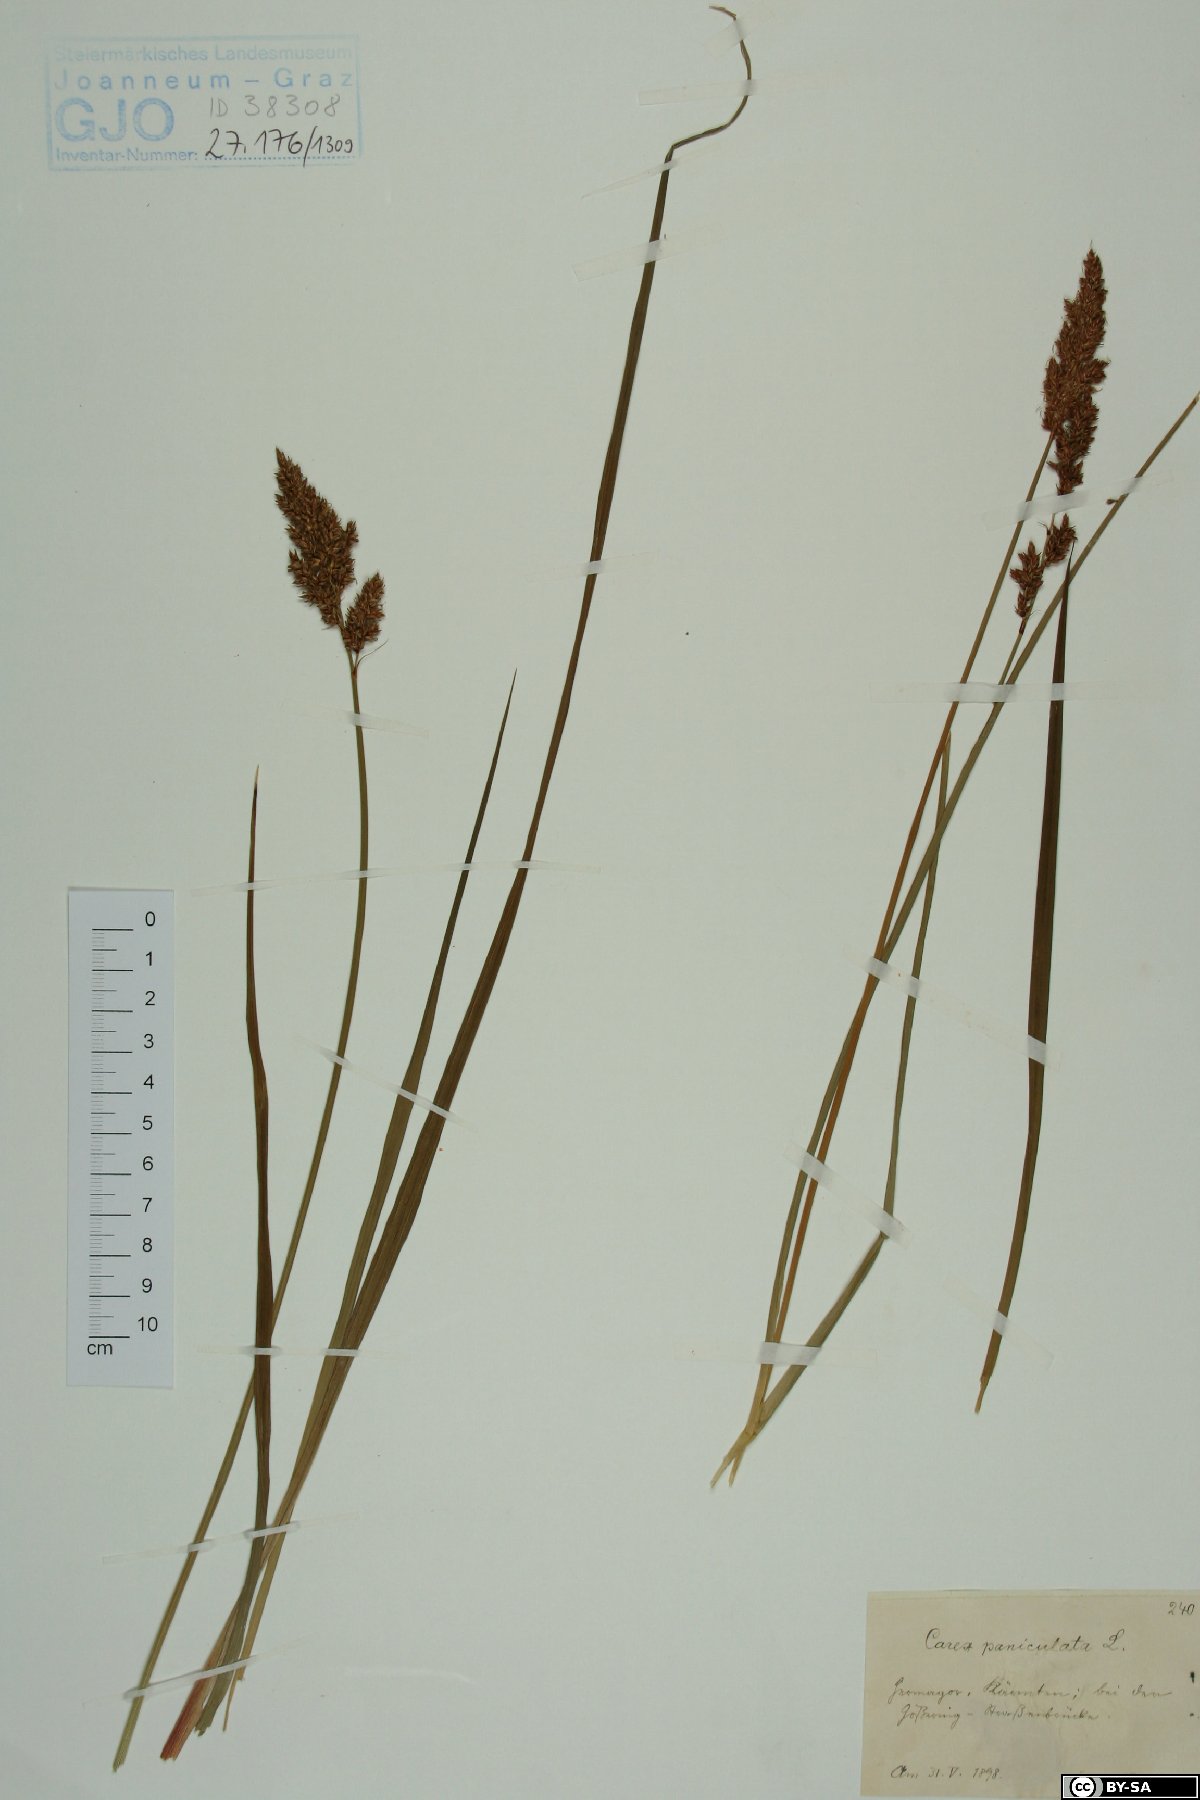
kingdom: Plantae
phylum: Tracheophyta
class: Liliopsida
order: Poales
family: Cyperaceae
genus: Carex
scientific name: Carex paniculata
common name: Greater tussock-sedge
